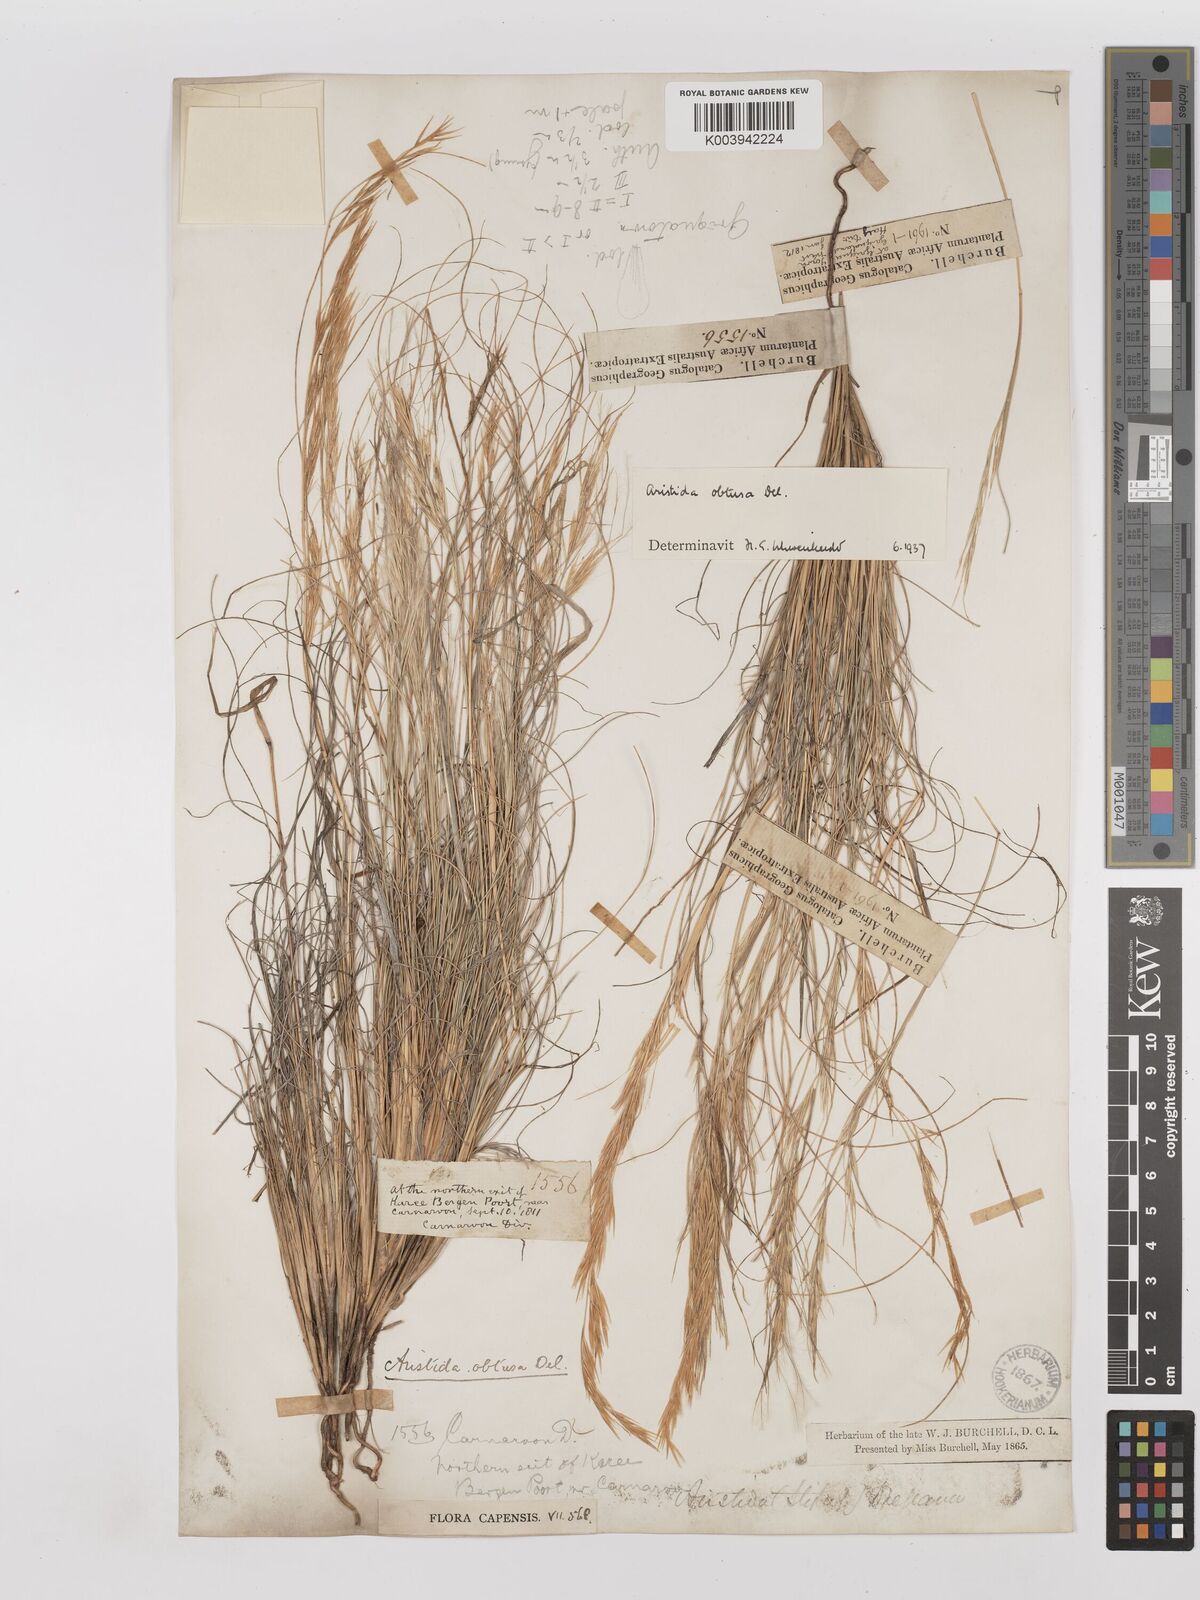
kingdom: Plantae
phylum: Tracheophyta
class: Liliopsida
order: Poales
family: Poaceae
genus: Stipagrostis
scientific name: Stipagrostis obtusa
